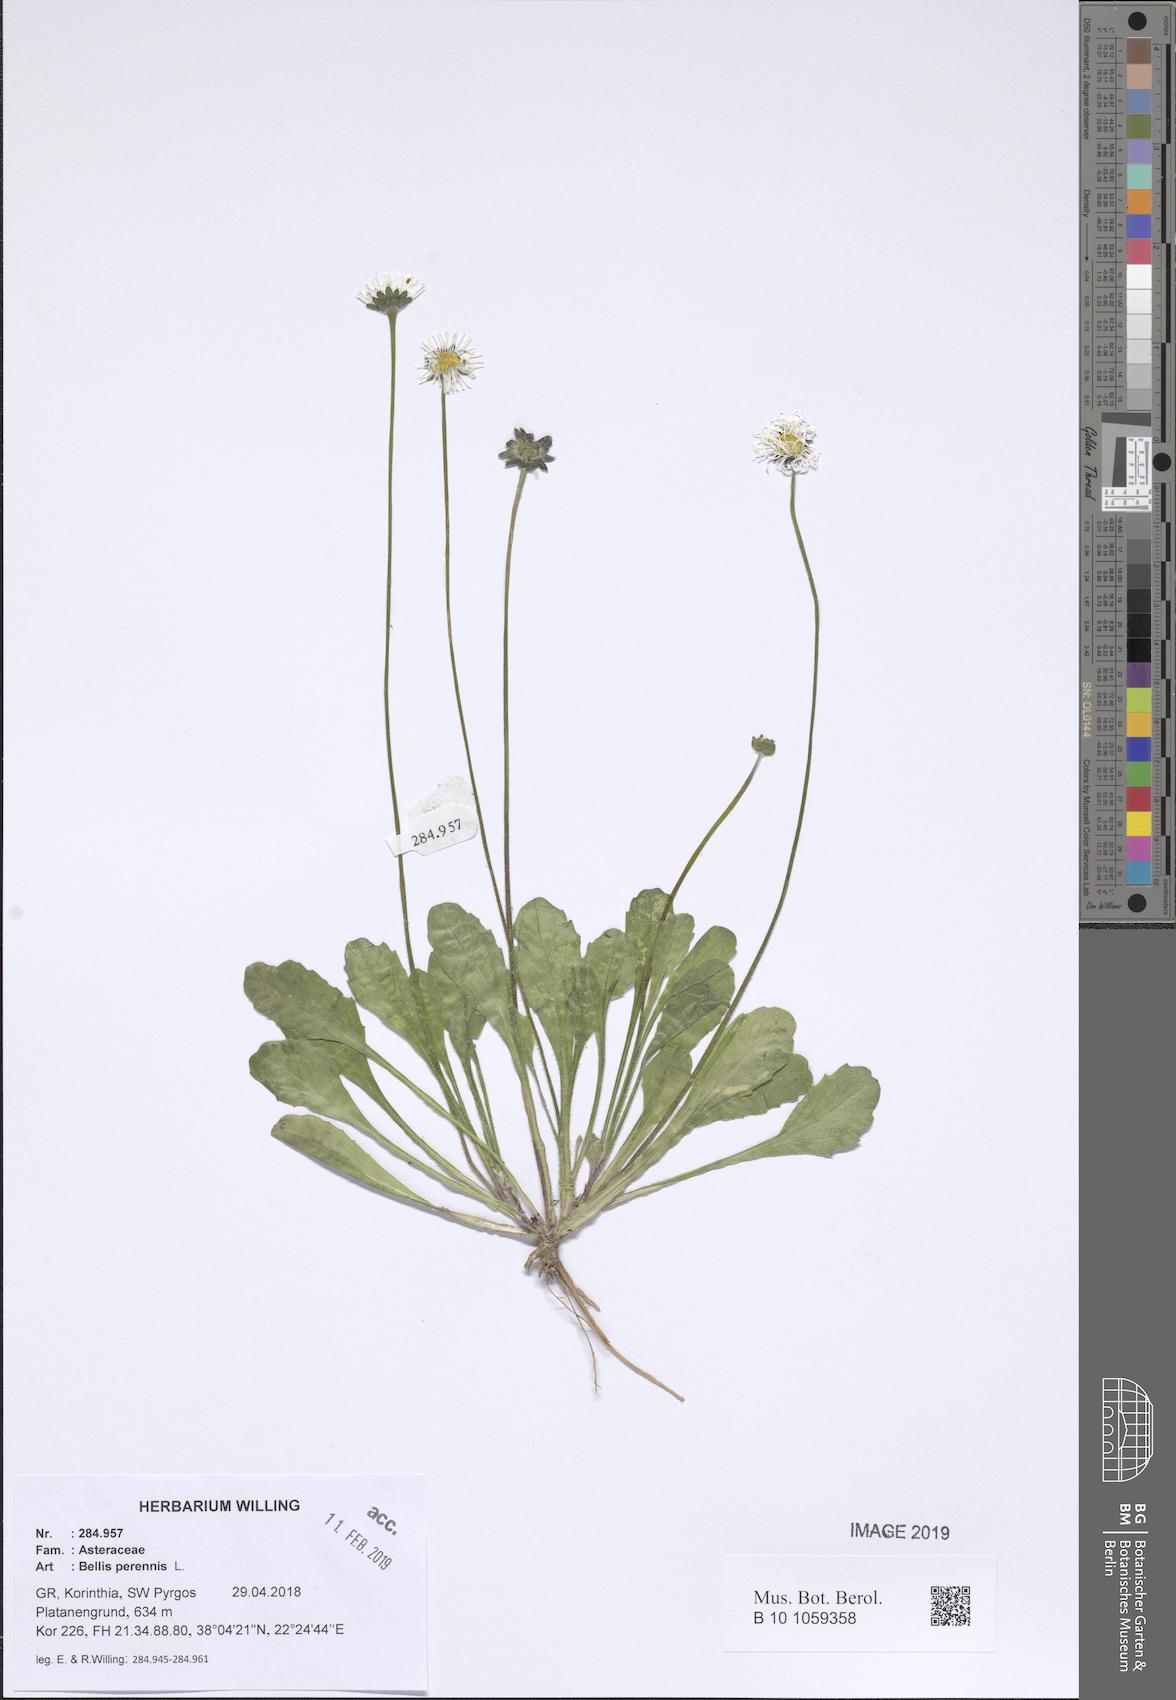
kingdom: Plantae
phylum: Tracheophyta
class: Magnoliopsida
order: Asterales
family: Asteraceae
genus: Bellis
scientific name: Bellis perennis
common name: Lawndaisy
